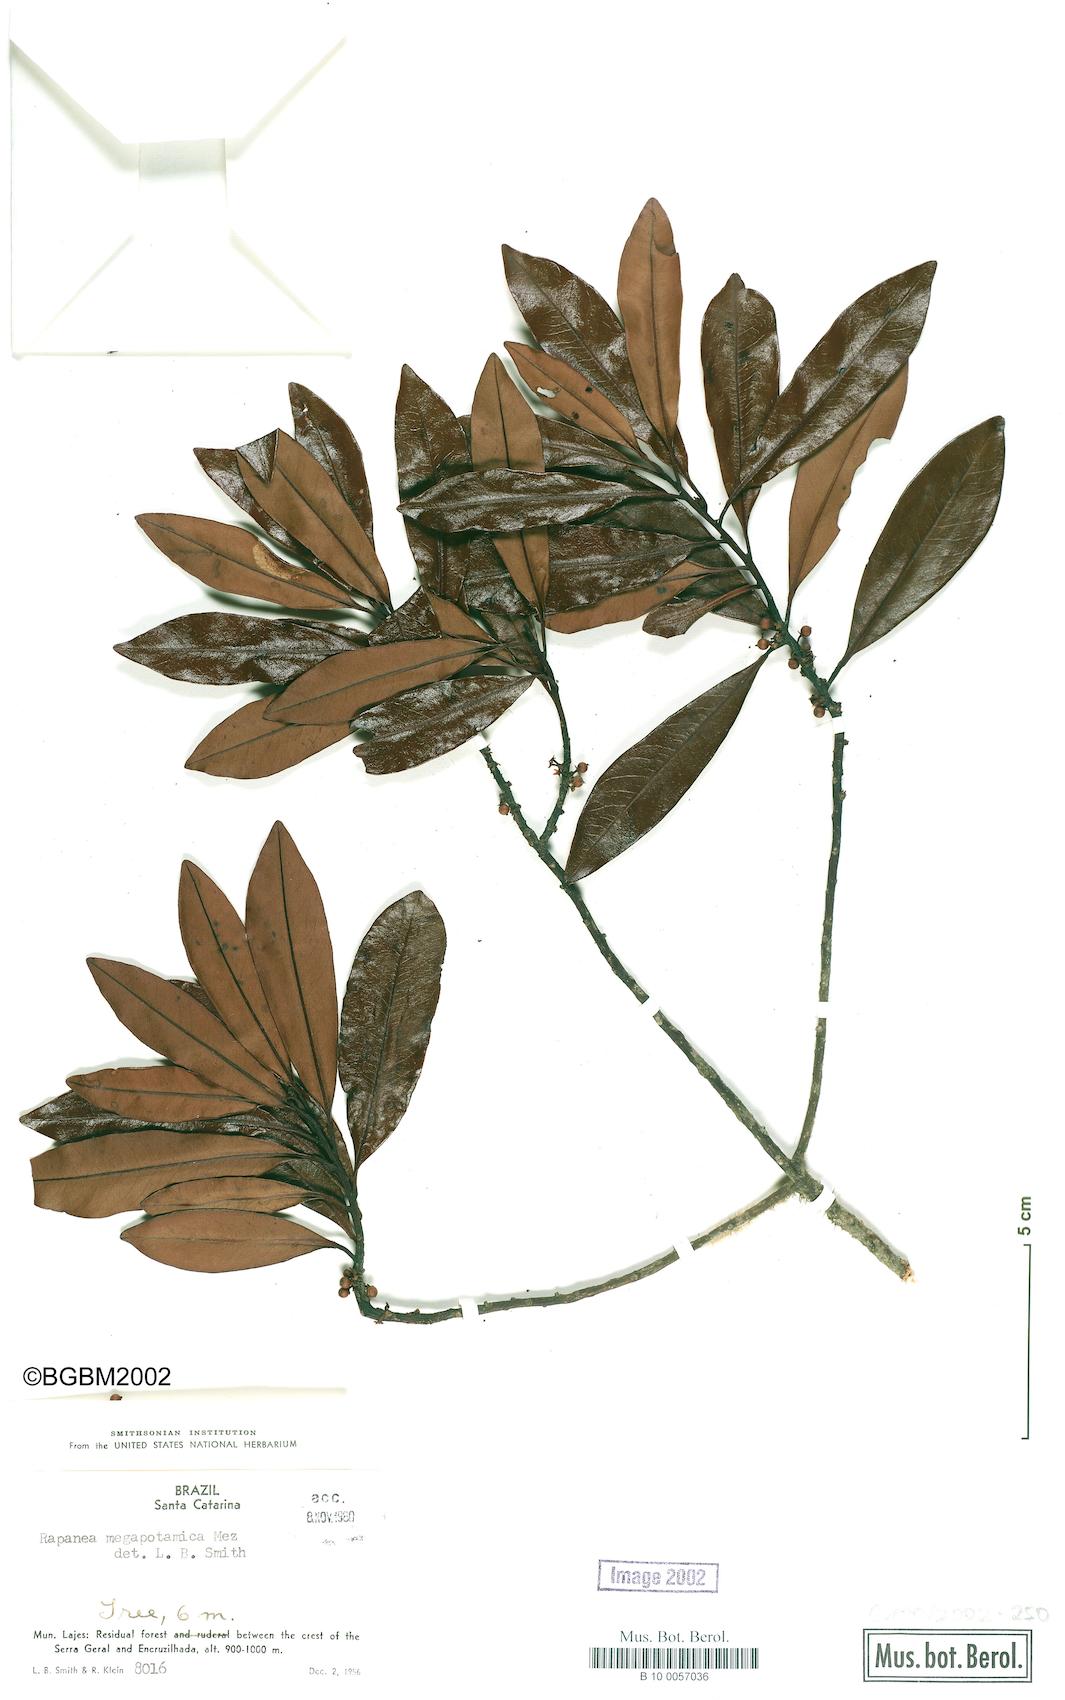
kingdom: Plantae
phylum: Tracheophyta
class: Magnoliopsida
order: Ericales
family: Primulaceae
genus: Myrsine
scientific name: Myrsine lorentziana
